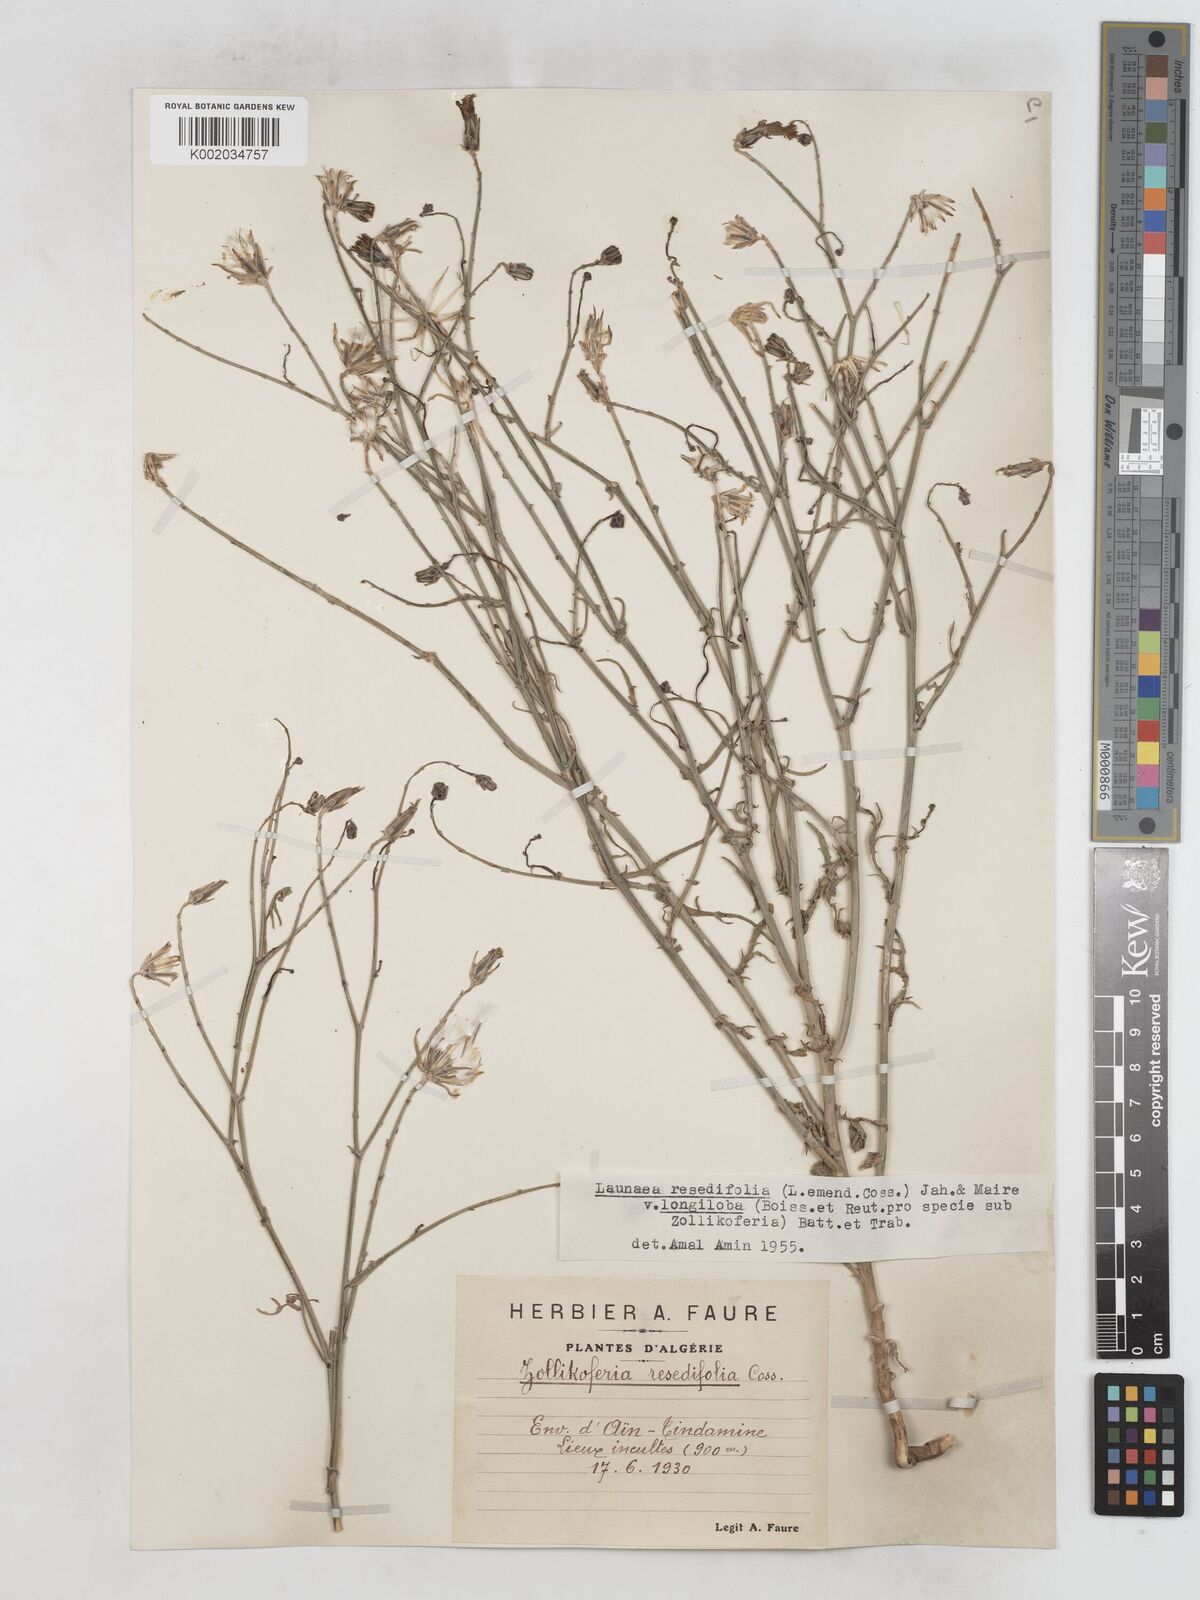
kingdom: Plantae
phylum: Tracheophyta
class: Magnoliopsida
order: Asterales
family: Asteraceae
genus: Launaea
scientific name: Launaea
